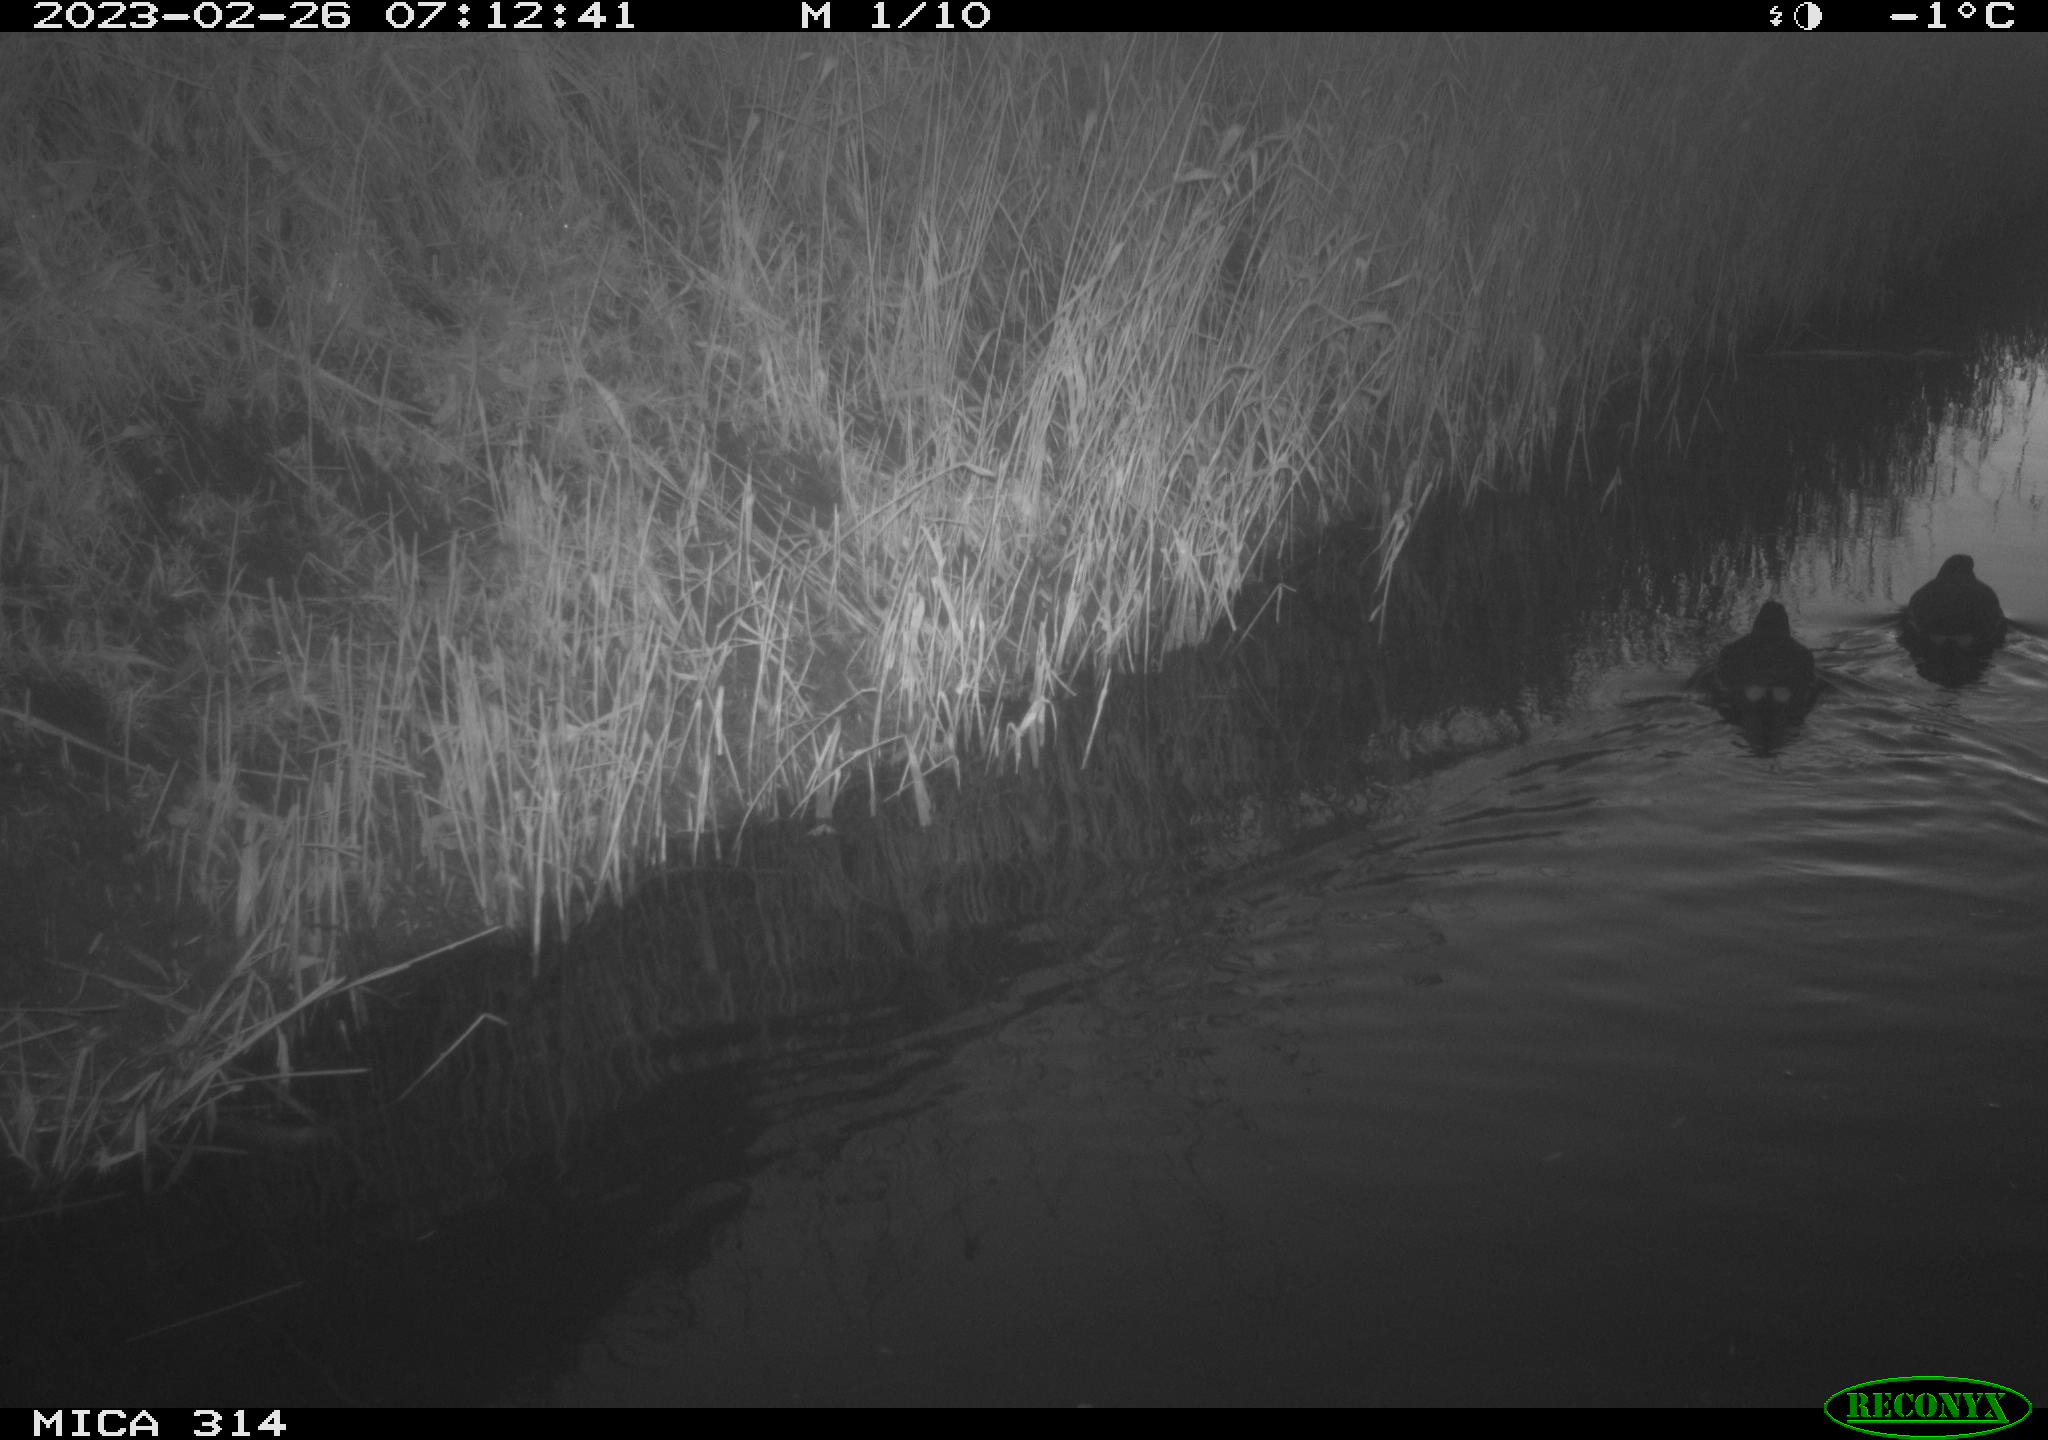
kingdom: Animalia
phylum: Chordata
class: Aves
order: Gruiformes
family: Rallidae
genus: Gallinula
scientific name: Gallinula chloropus
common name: Common moorhen
